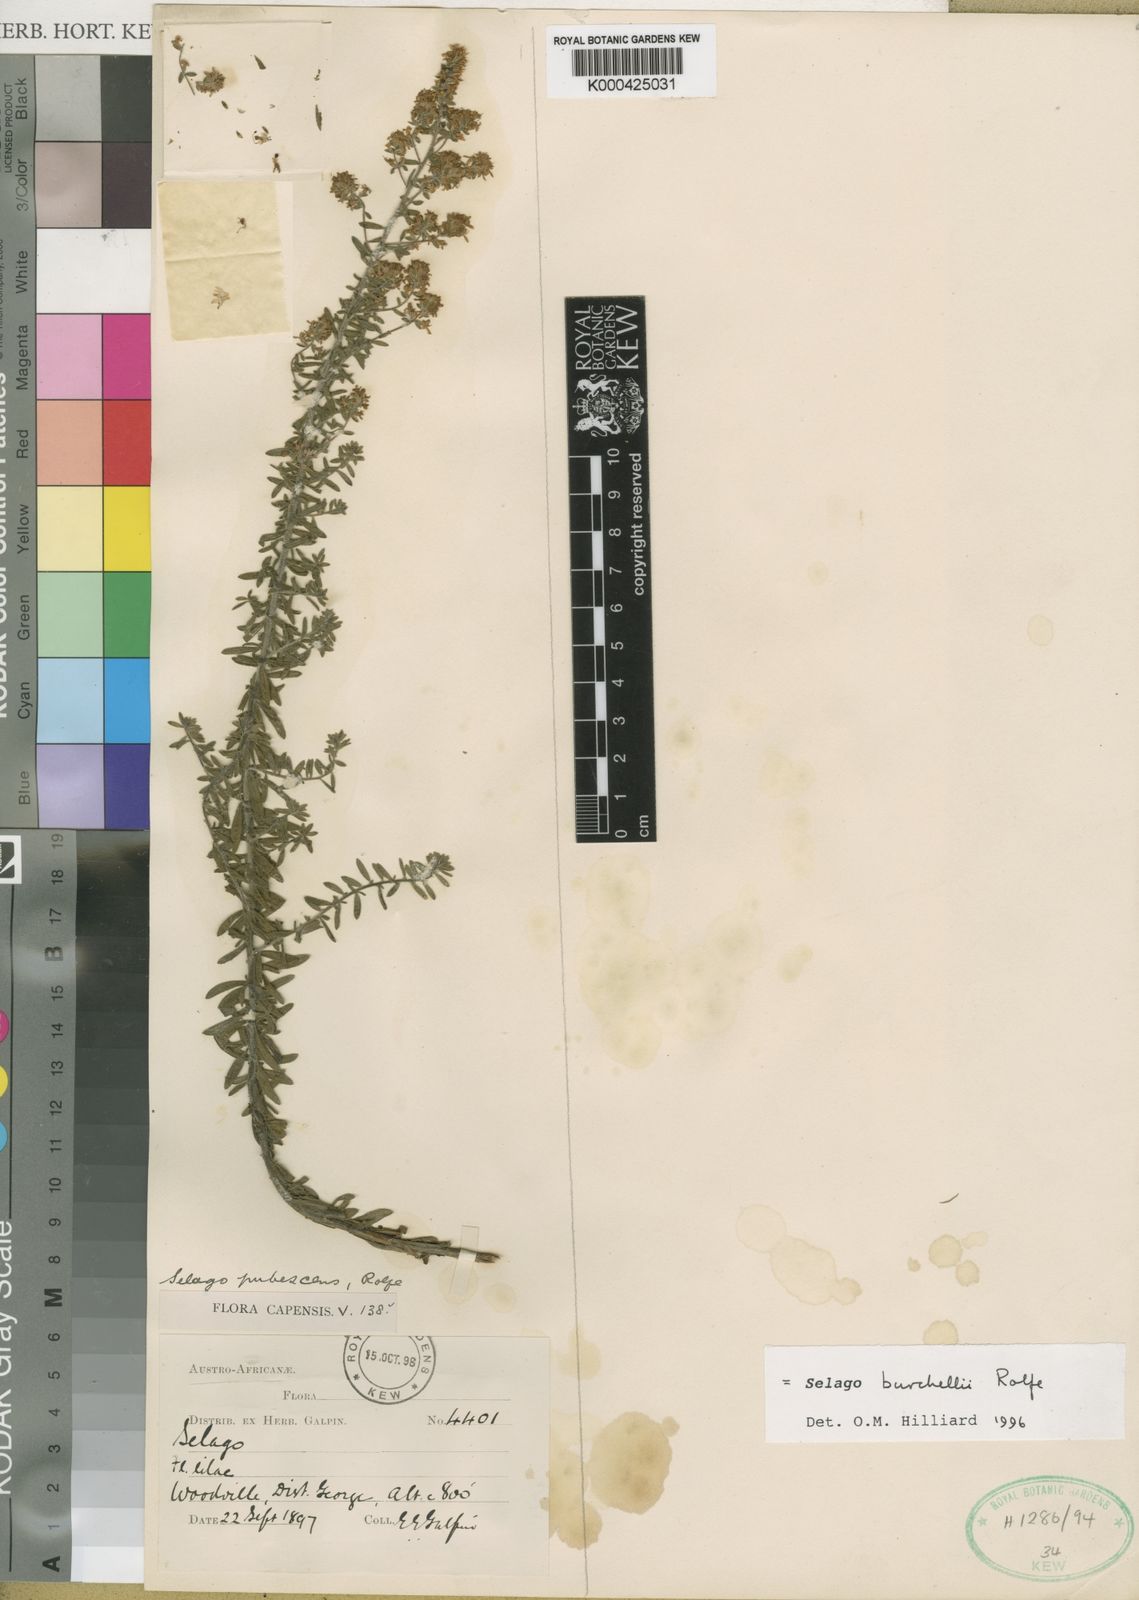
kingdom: Plantae
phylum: Tracheophyta
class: Magnoliopsida
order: Lamiales
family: Scrophulariaceae
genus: Selago
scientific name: Selago burchellii
